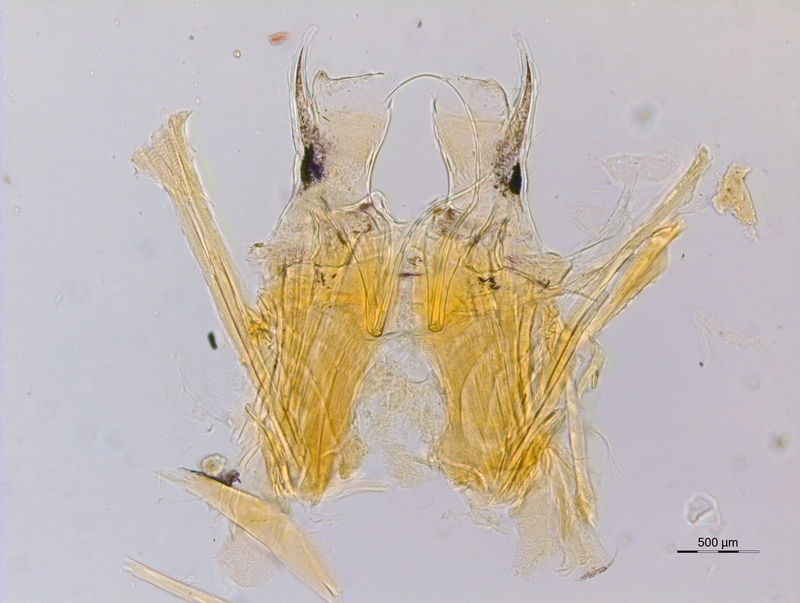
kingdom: Animalia
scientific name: Animalia
